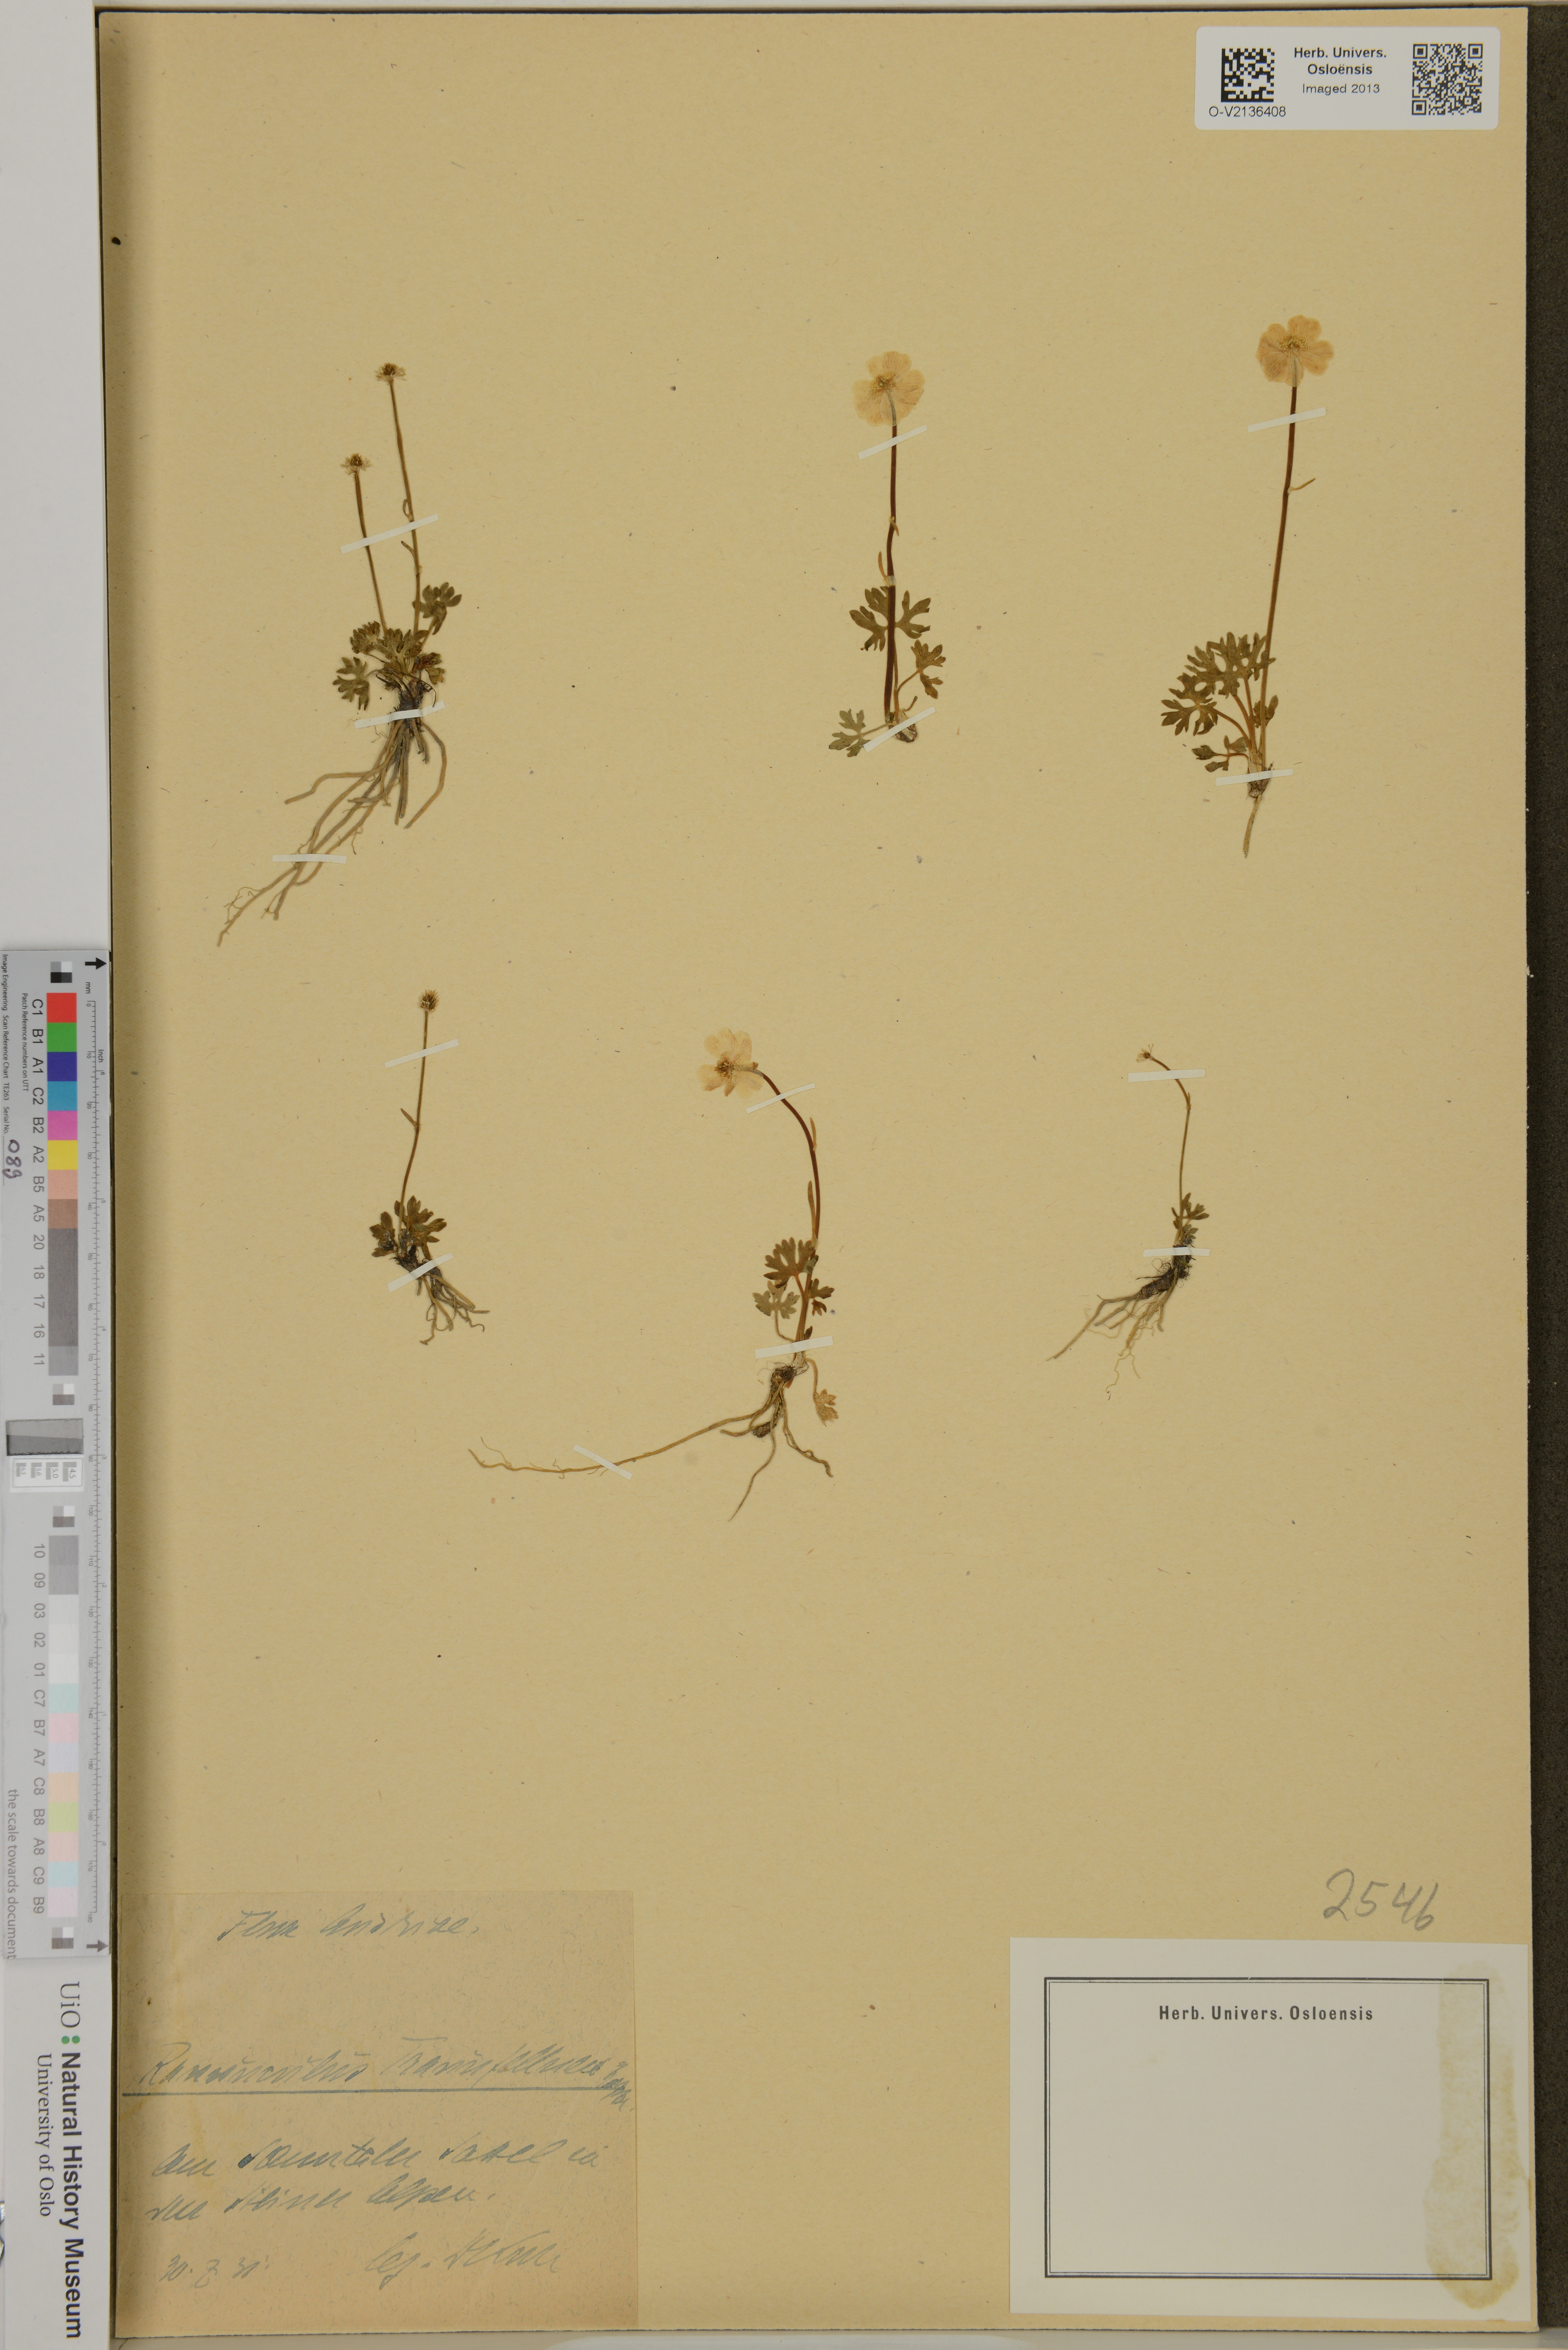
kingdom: Plantae
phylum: Tracheophyta
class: Magnoliopsida
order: Ranunculales
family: Ranunculaceae
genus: Ranunculus
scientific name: Ranunculus traunfellneri
